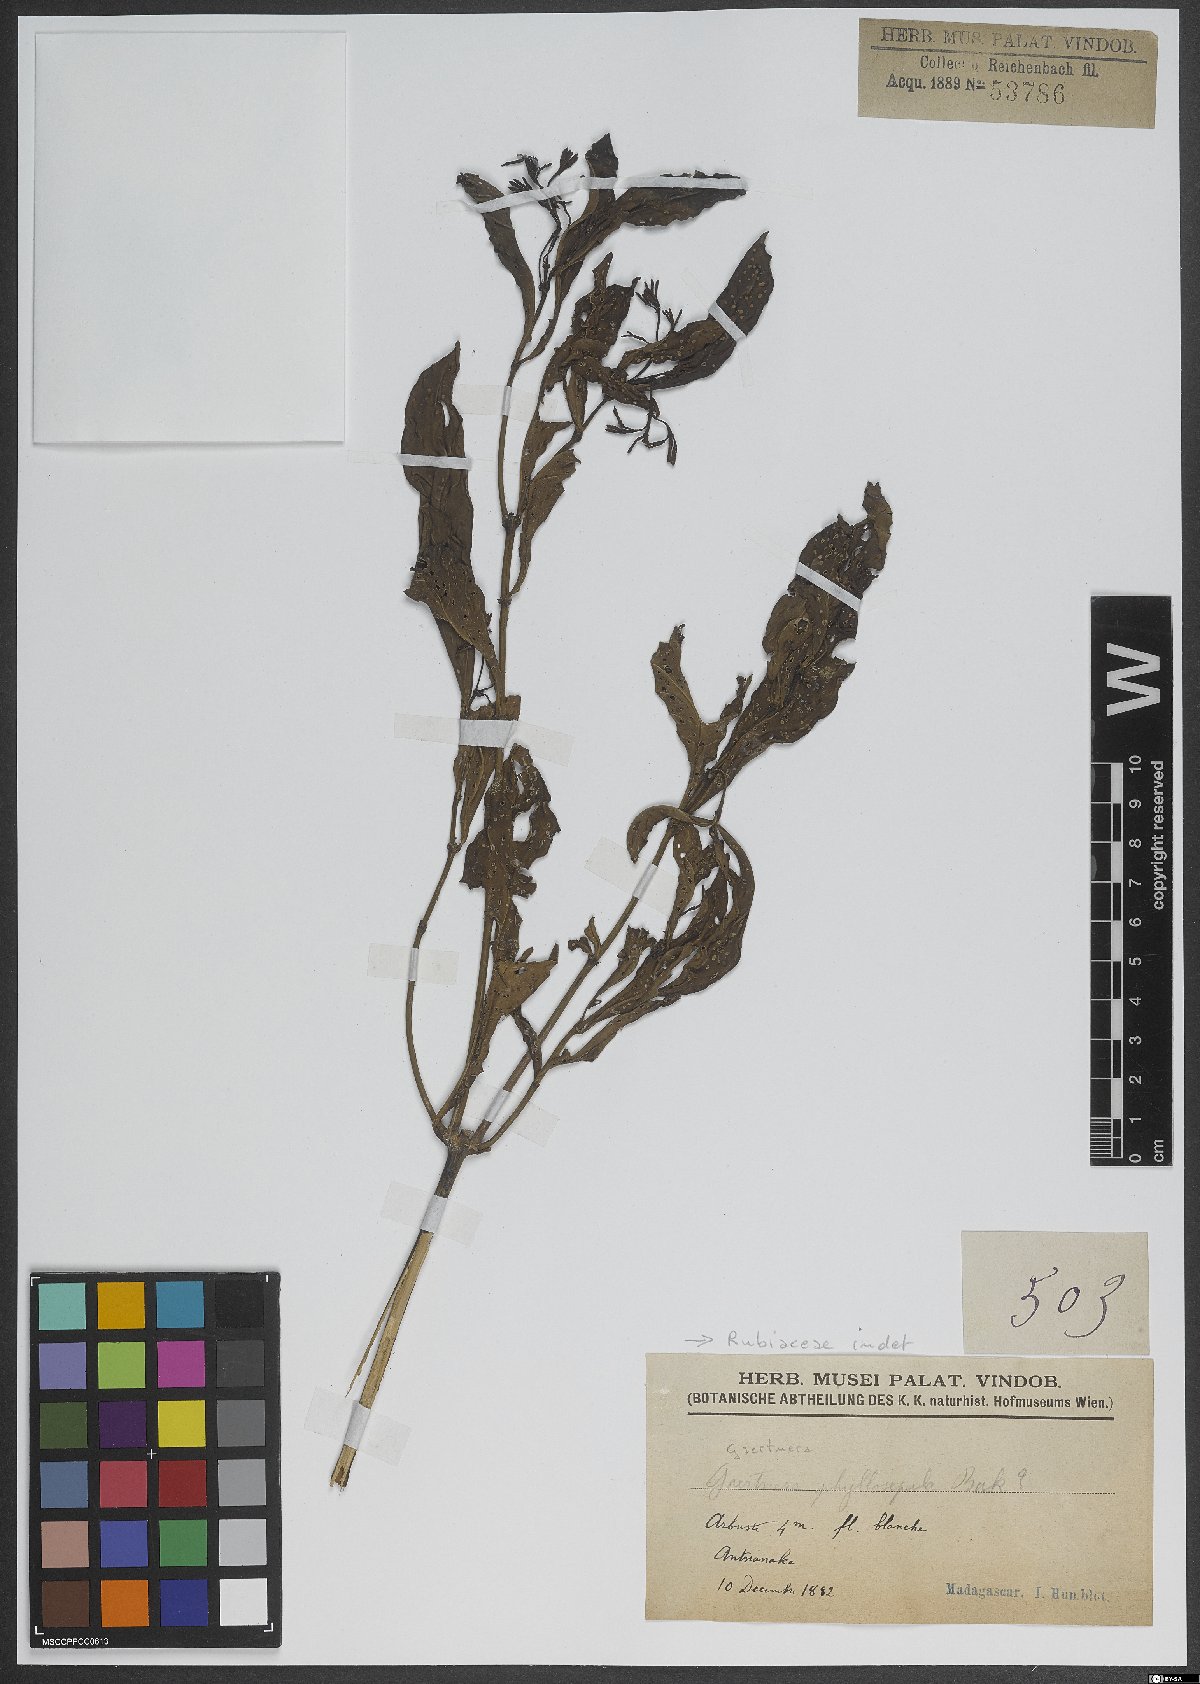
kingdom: Plantae
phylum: Tracheophyta
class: Magnoliopsida
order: Gentianales
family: Rubiaceae
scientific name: Rubiaceae
